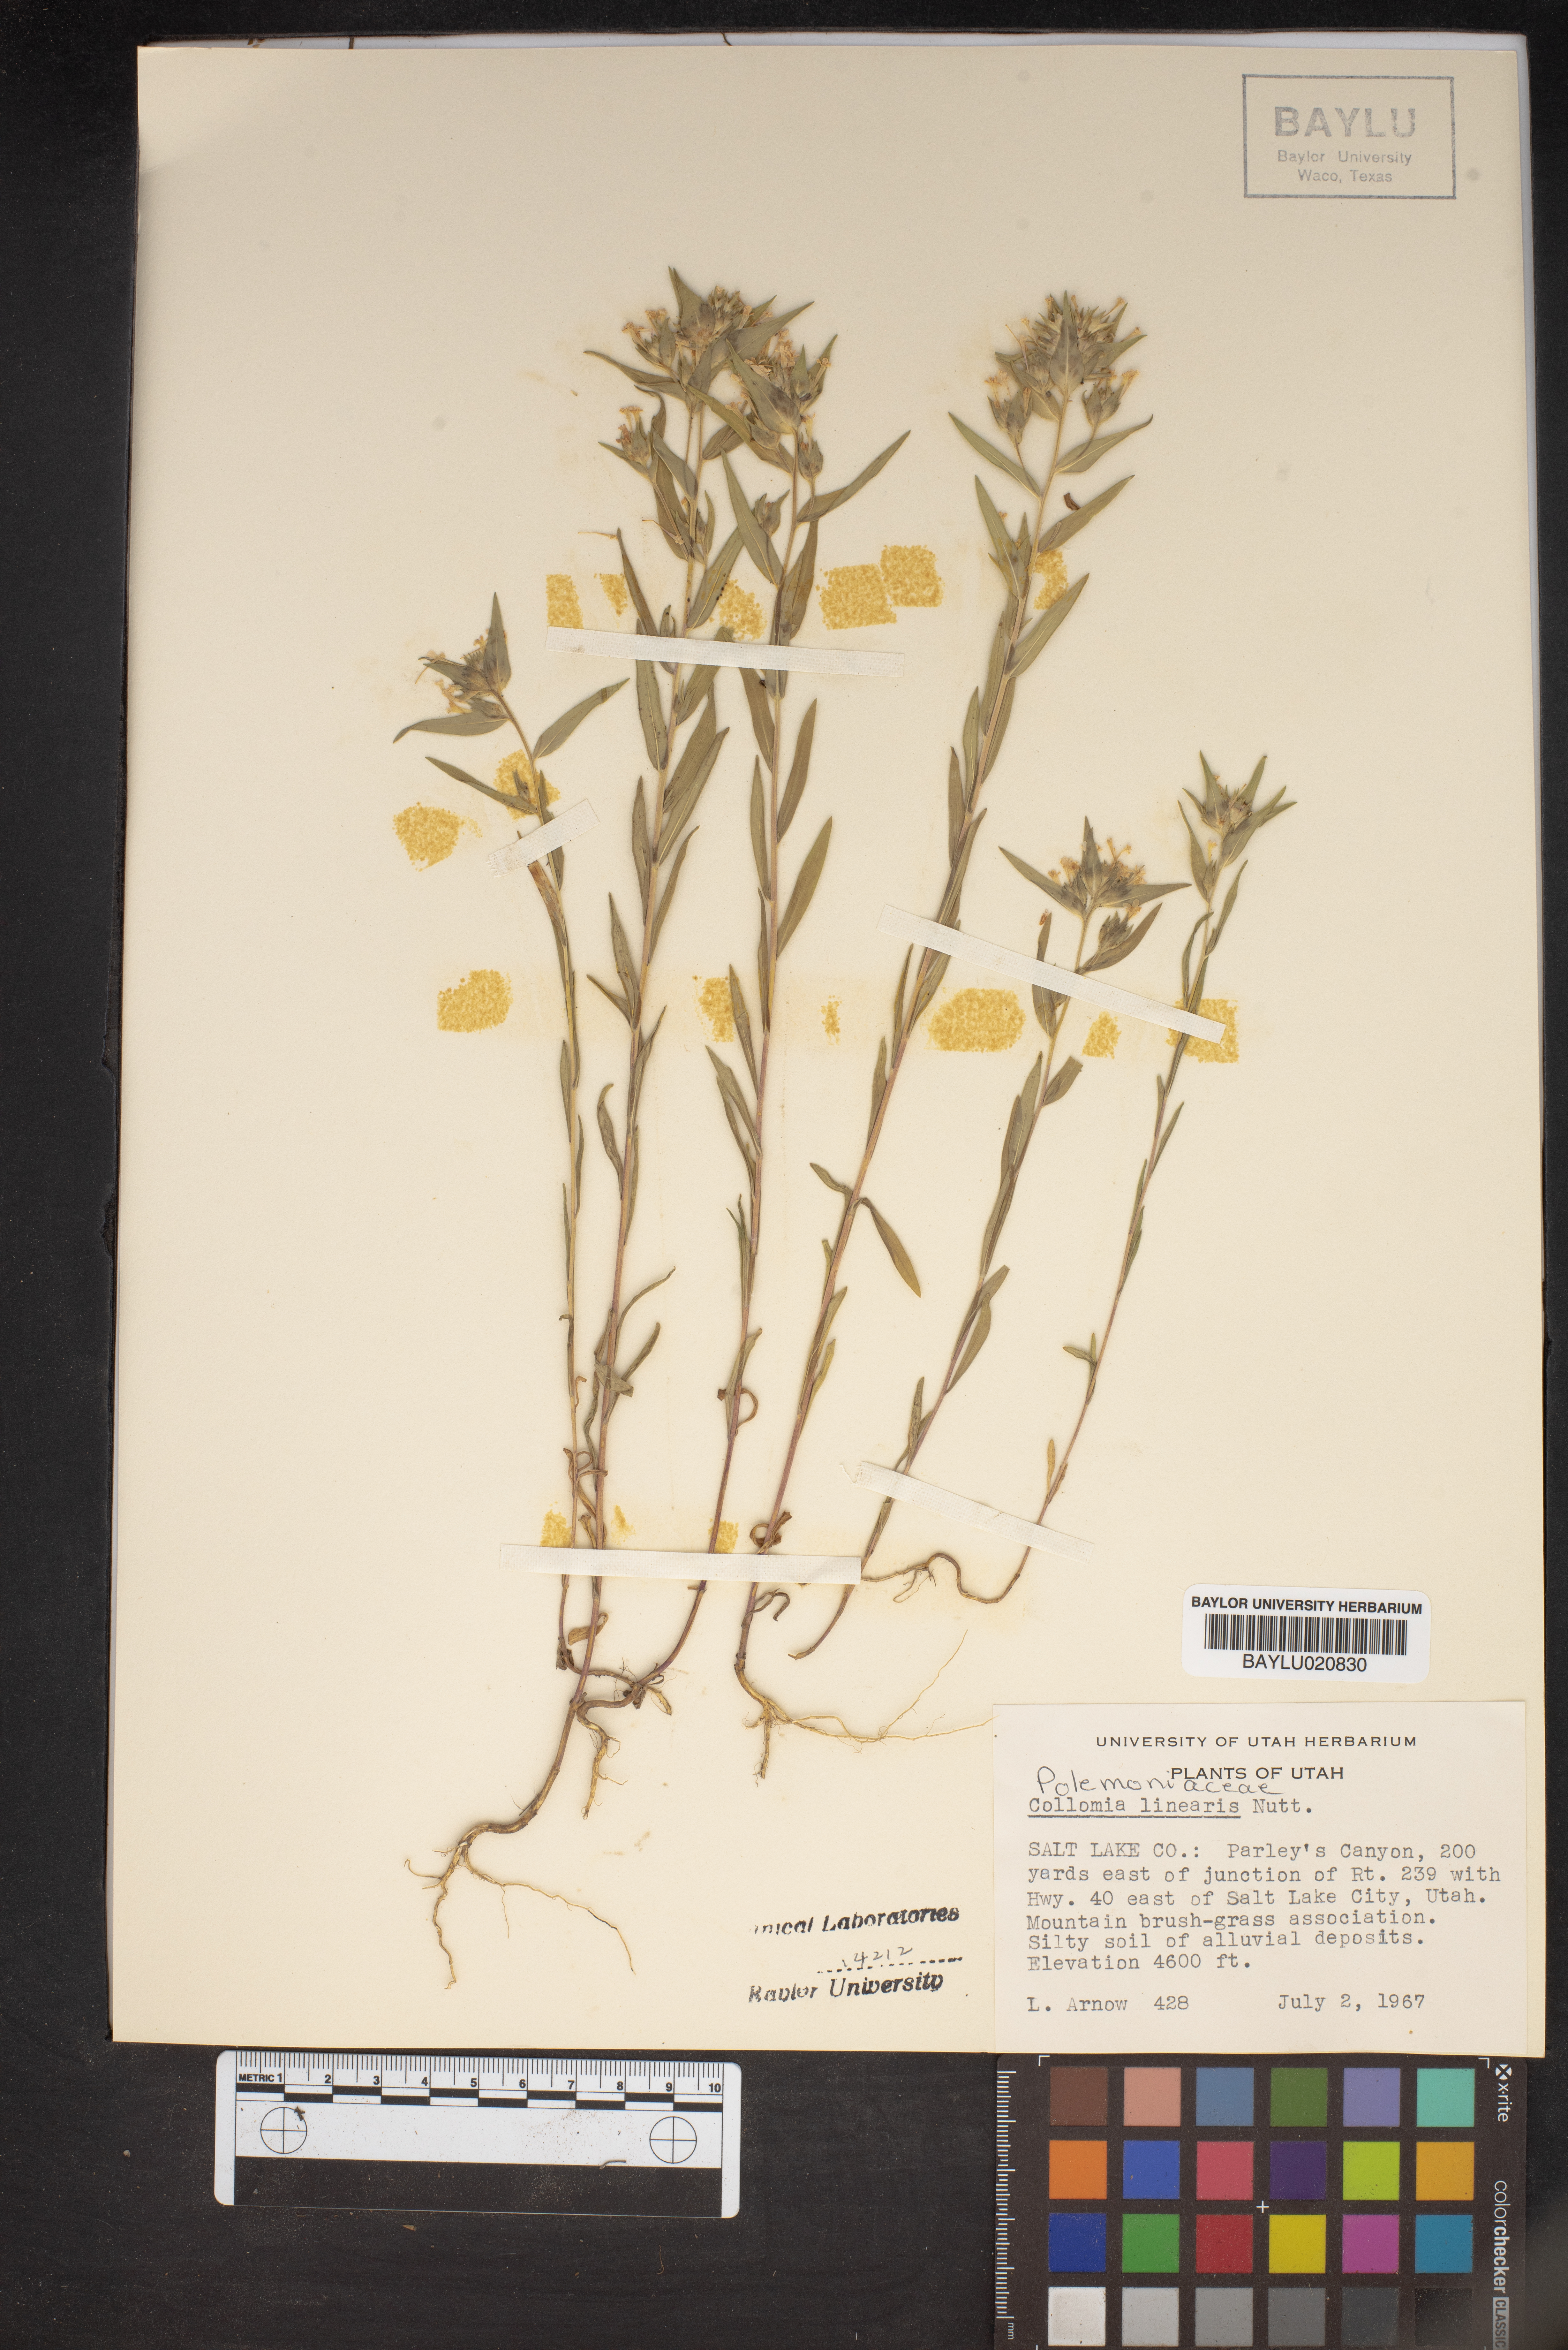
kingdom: Plantae
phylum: Tracheophyta
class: Magnoliopsida
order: Ericales
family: Polemoniaceae
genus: Collomia
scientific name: Collomia linearis
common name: Tiny trumpet
